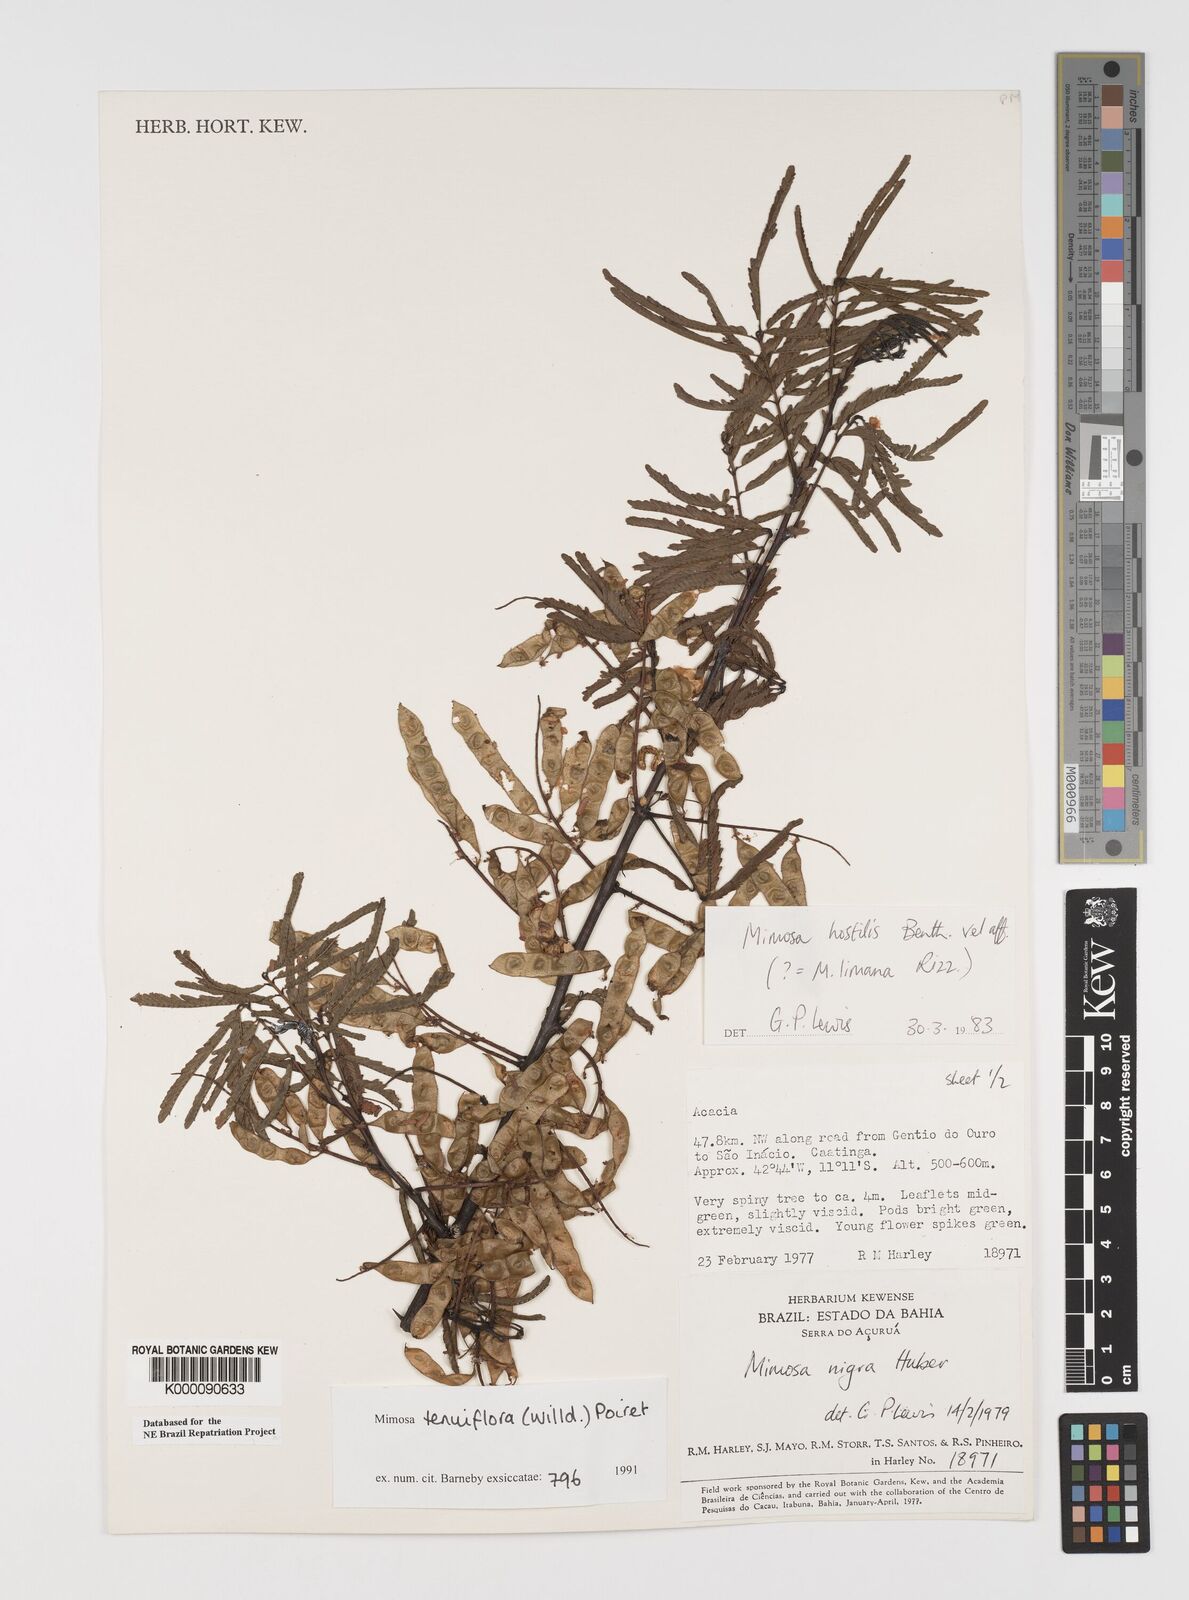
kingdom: Plantae
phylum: Tracheophyta
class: Magnoliopsida
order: Fabales
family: Fabaceae
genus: Mimosa
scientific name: Mimosa tenuiflora
